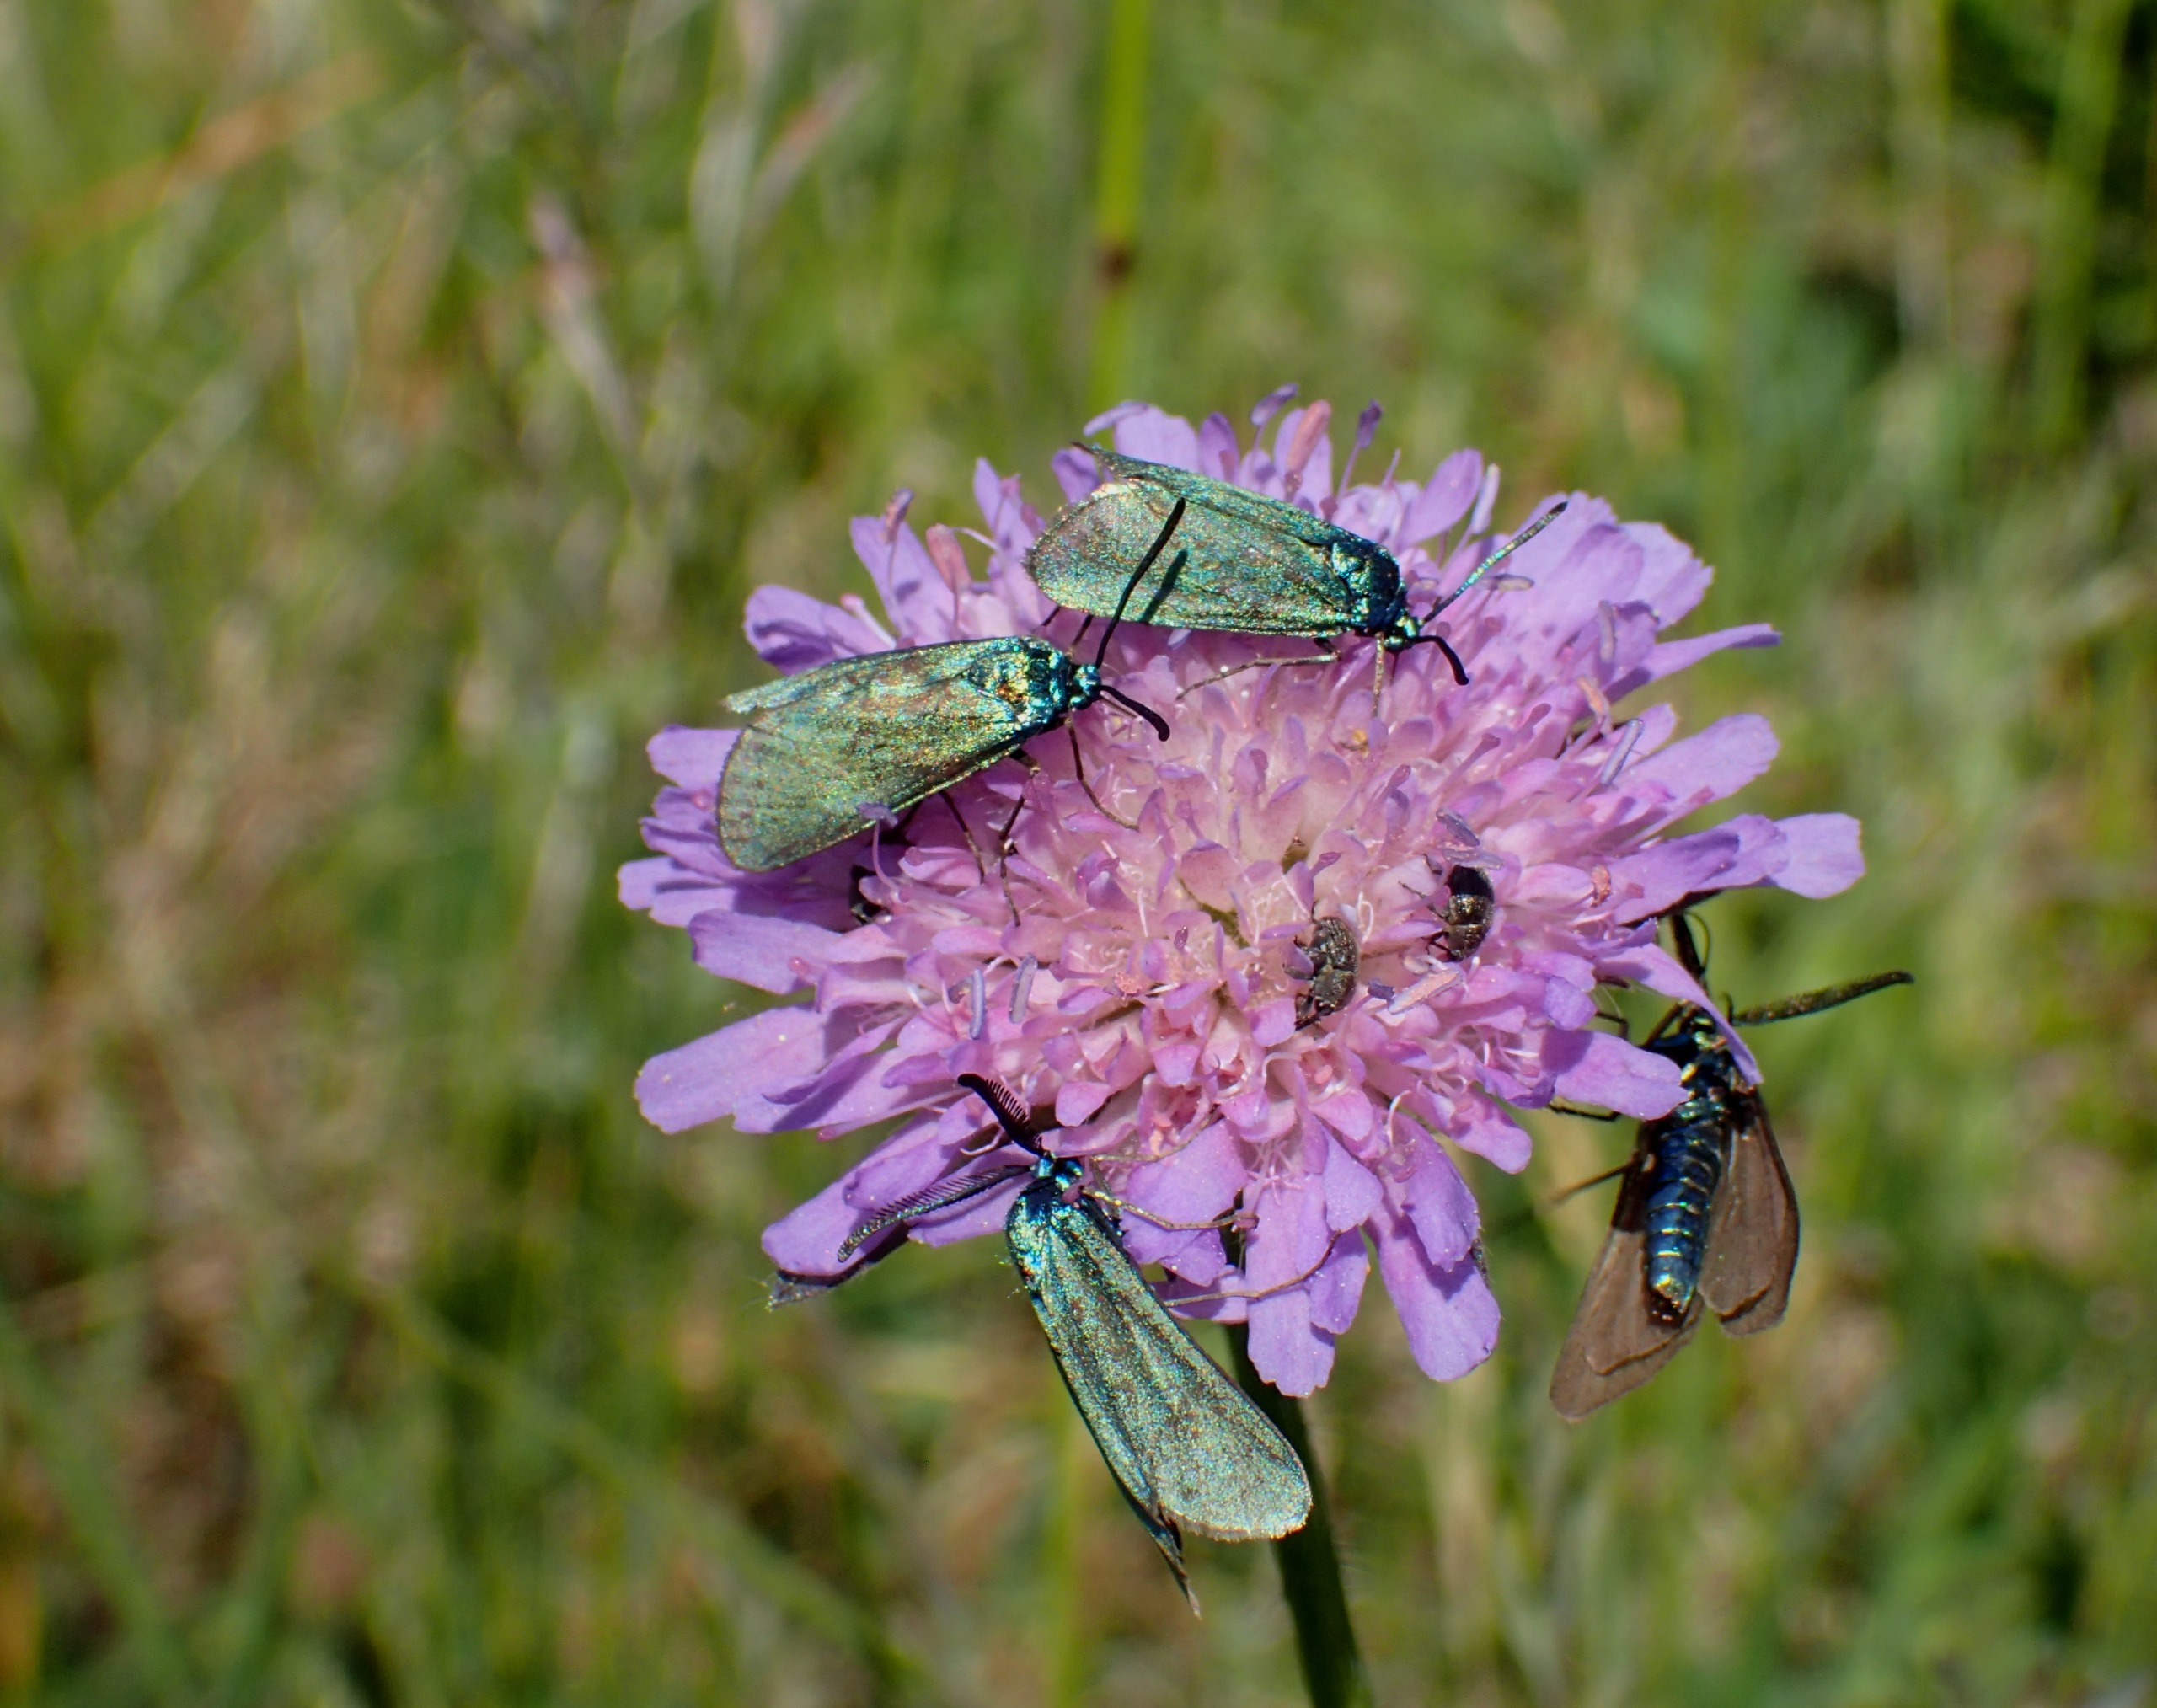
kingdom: Animalia
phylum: Arthropoda
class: Insecta
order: Lepidoptera
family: Zygaenidae
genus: Adscita
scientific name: Adscita statices
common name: Metalvinge
